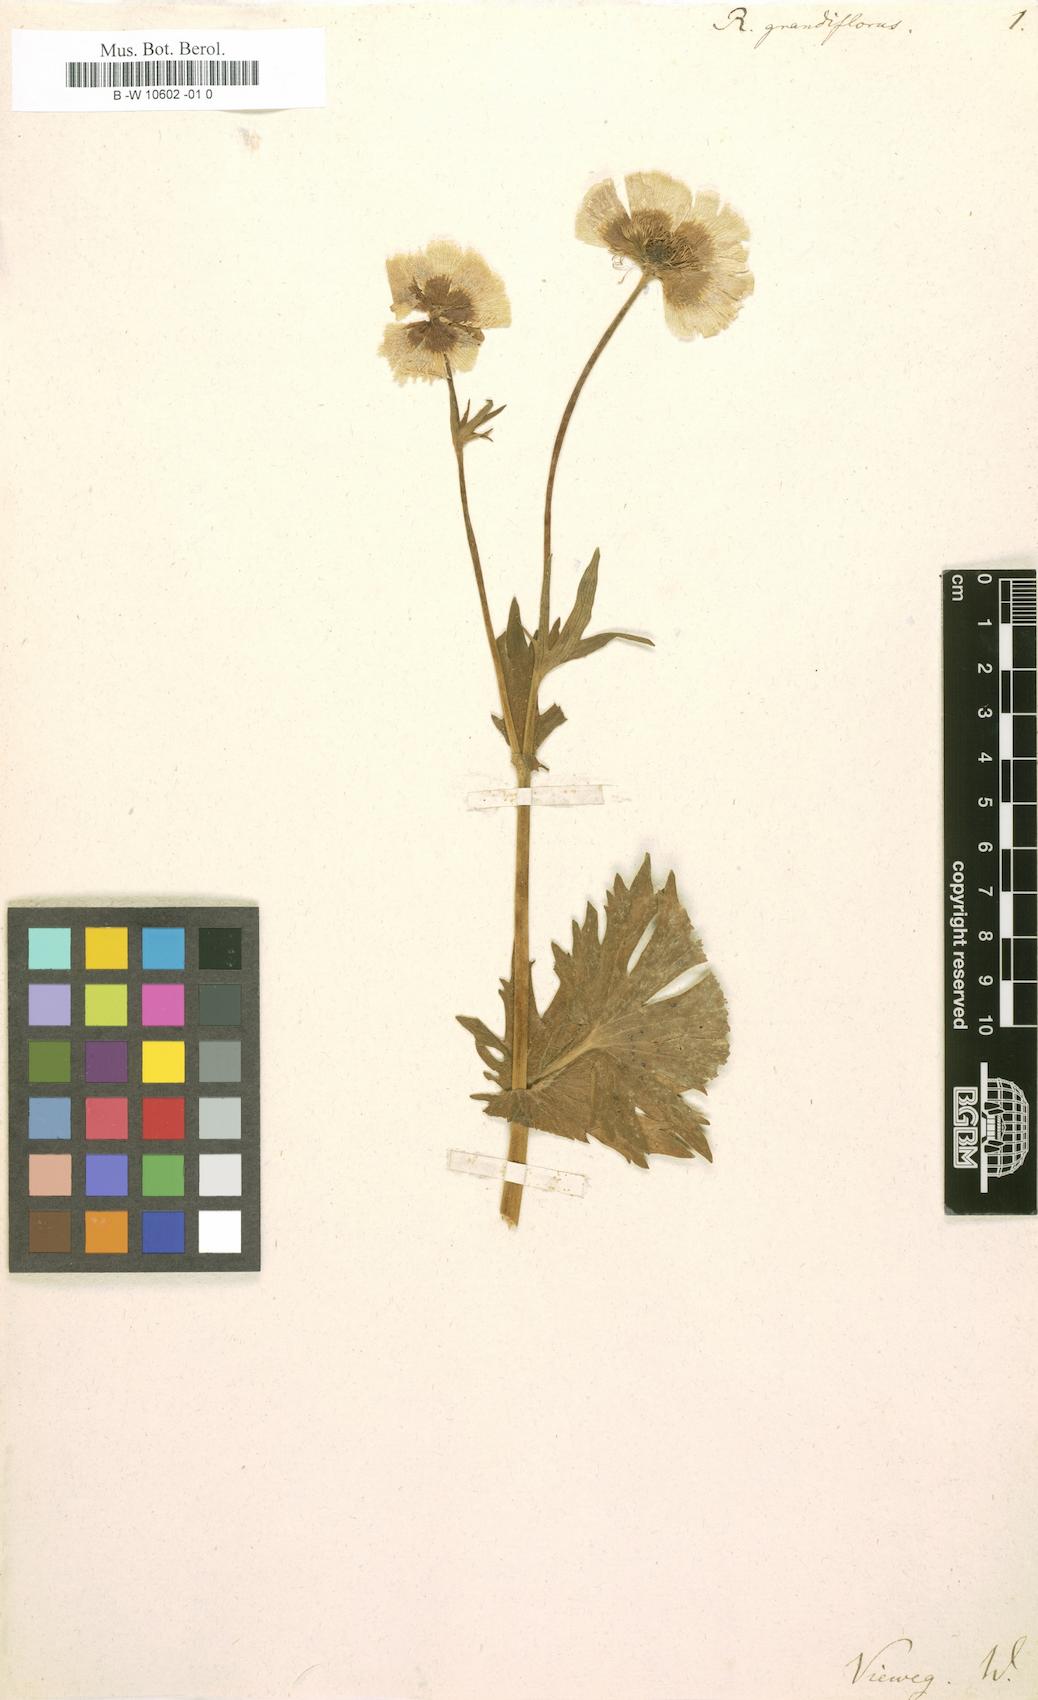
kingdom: Plantae
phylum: Tracheophyta
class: Magnoliopsida
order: Ranunculales
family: Ranunculaceae
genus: Ranunculus
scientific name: Ranunculus grandiflorus
